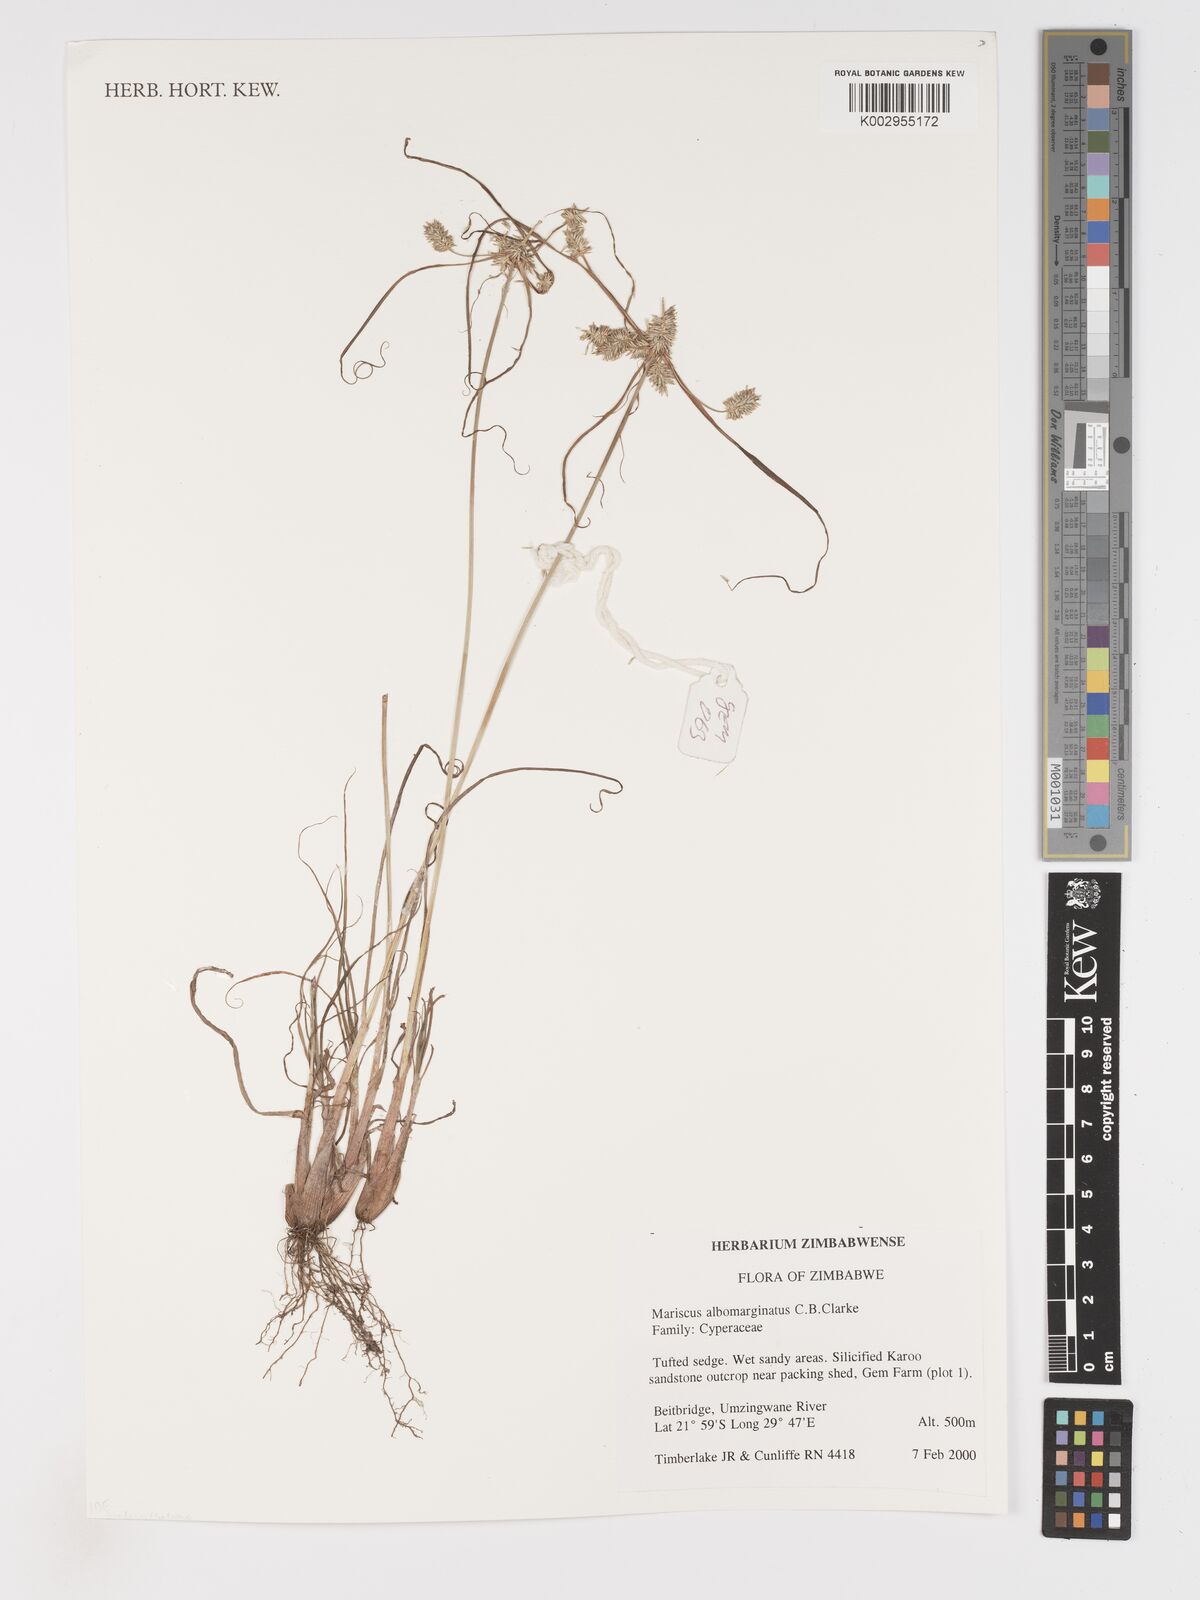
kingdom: Plantae
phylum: Tracheophyta
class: Liliopsida
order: Poales
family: Cyperaceae
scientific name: Cyperaceae
